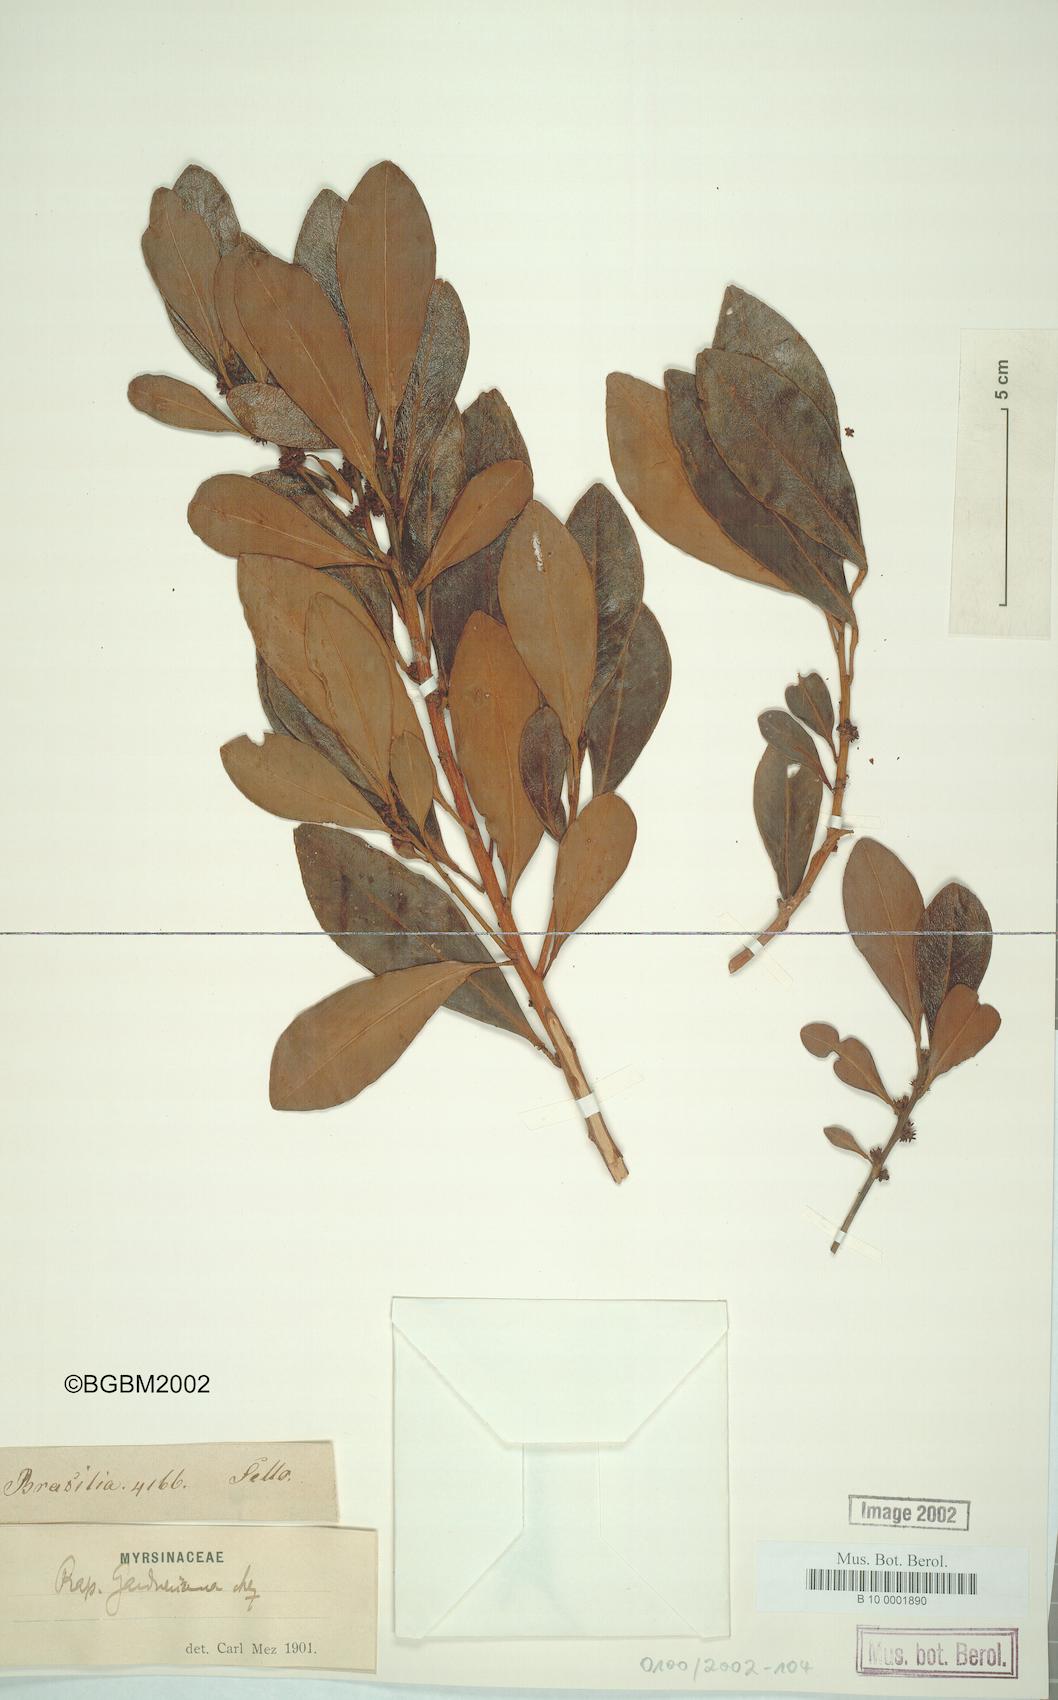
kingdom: Plantae
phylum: Tracheophyta
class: Magnoliopsida
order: Ericales
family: Primulaceae
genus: Myrsine
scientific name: Myrsine gardneriana
